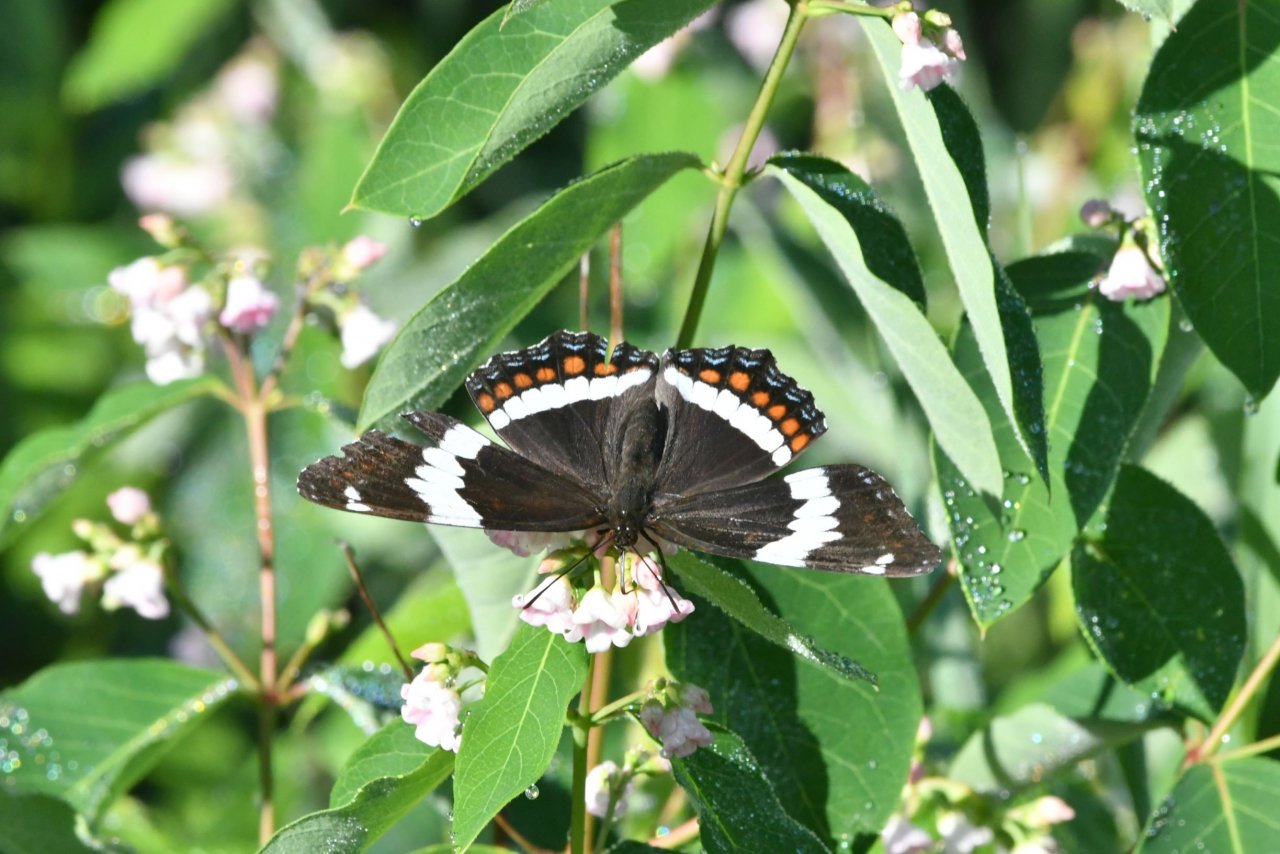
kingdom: Animalia
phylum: Arthropoda
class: Insecta
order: Lepidoptera
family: Nymphalidae
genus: Limenitis
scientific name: Limenitis arthemis
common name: Red-spotted Admiral
